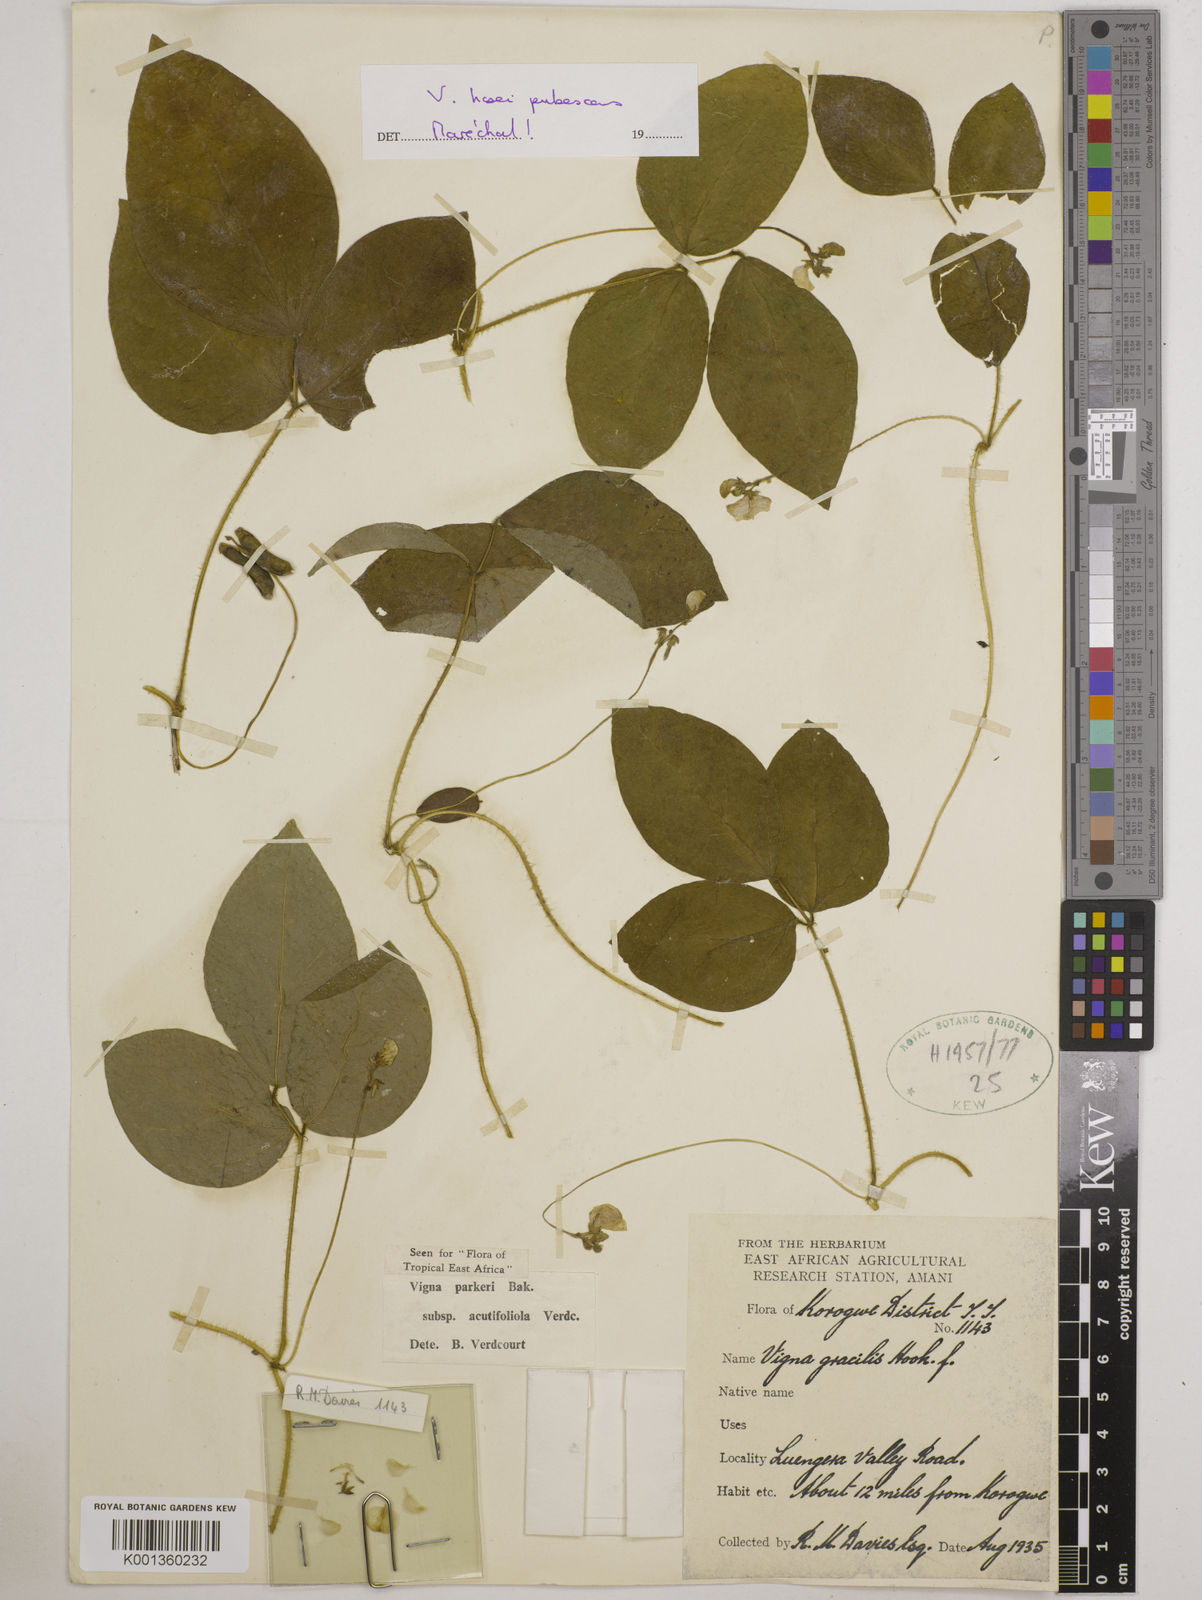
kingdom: Plantae
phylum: Tracheophyta
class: Magnoliopsida
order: Fabales
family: Fabaceae
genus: Vigna
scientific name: Vigna hosei
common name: Sarawak-bean
